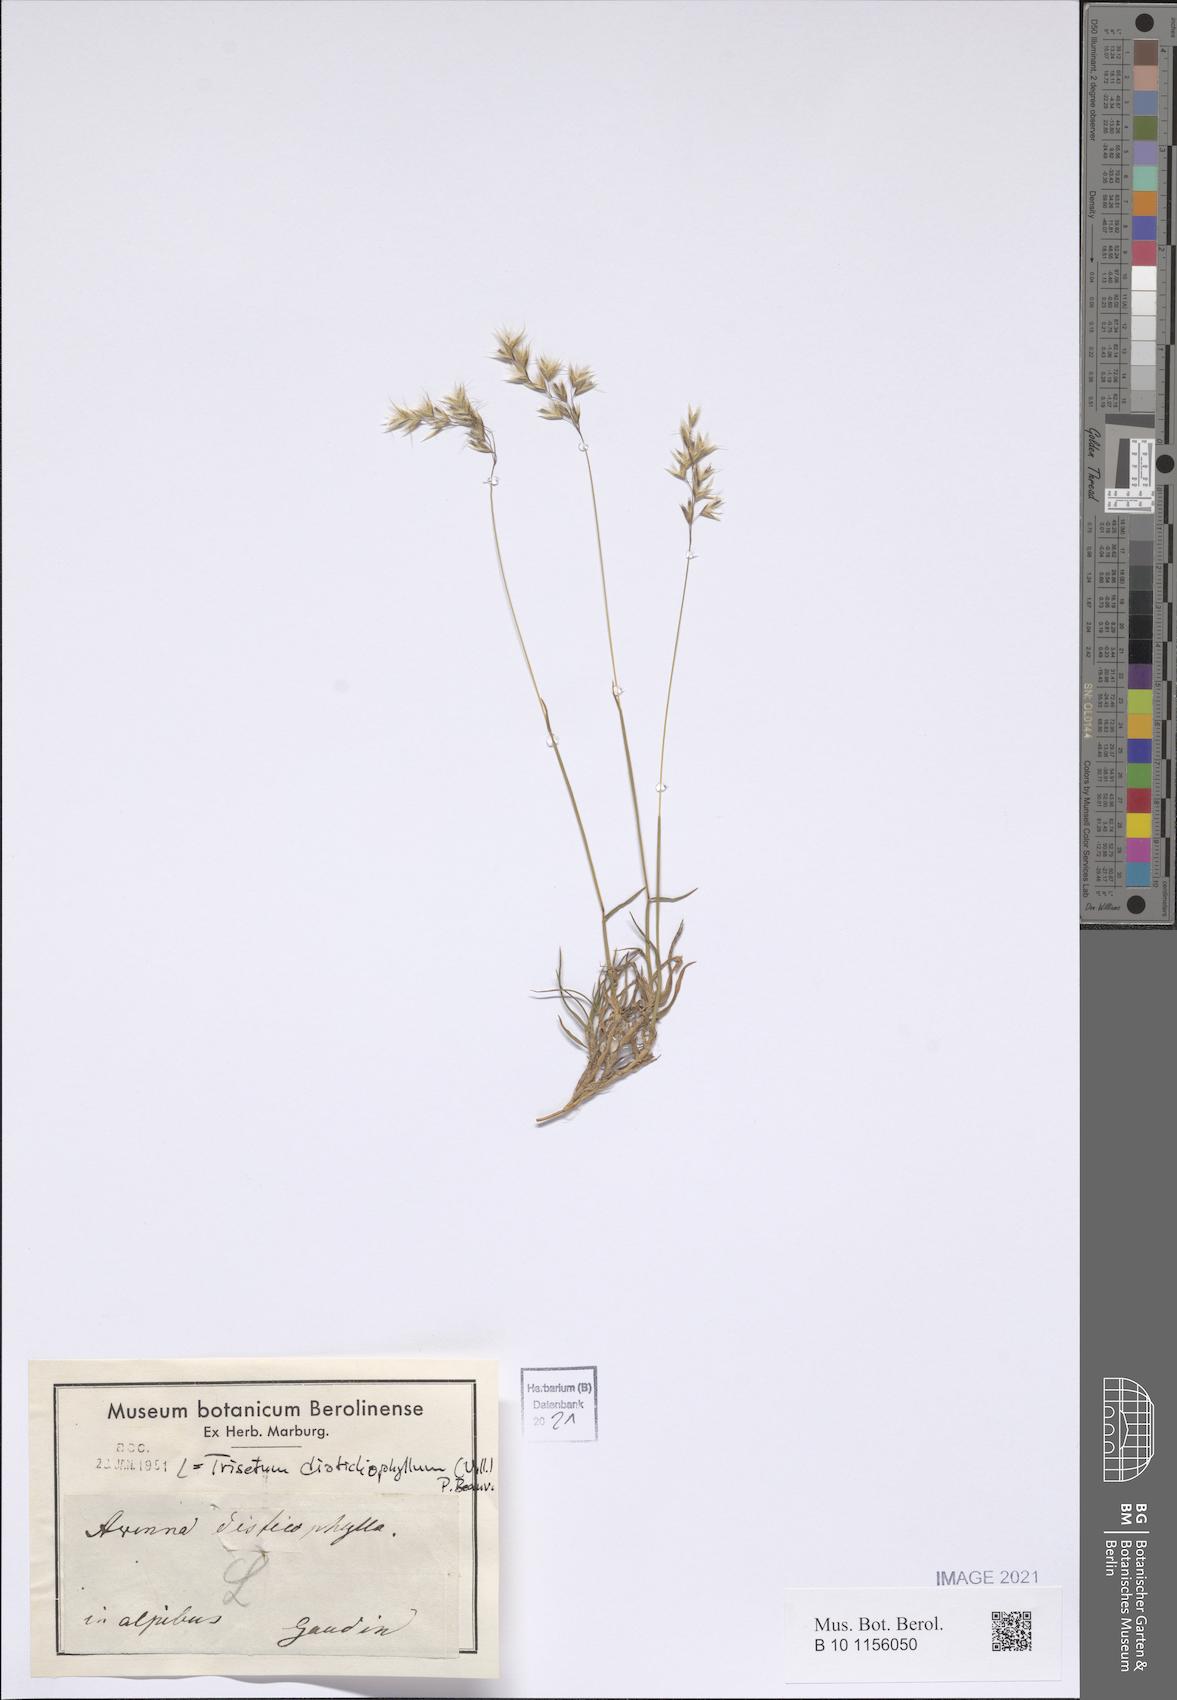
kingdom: Plantae
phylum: Tracheophyta
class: Liliopsida
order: Poales
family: Poaceae
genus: Acrospelion
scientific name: Acrospelion distichophyllum
